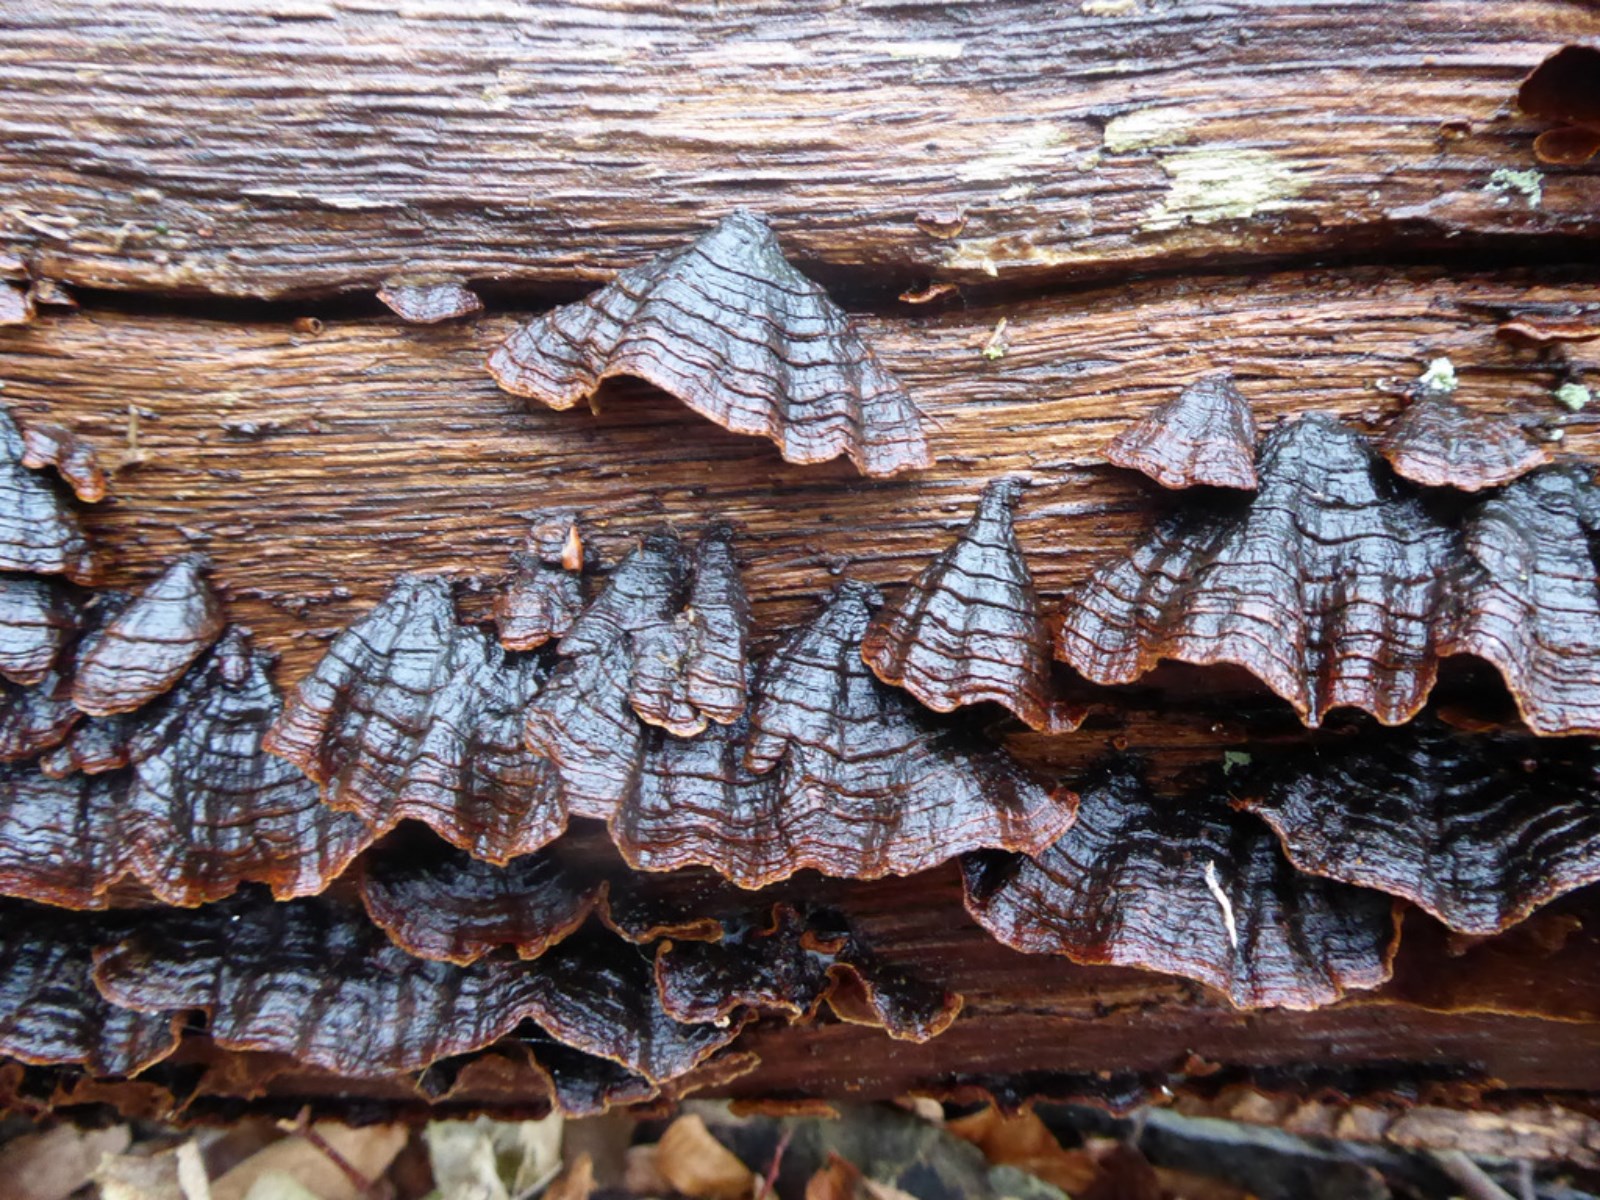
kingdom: Fungi
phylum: Basidiomycota
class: Agaricomycetes
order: Hymenochaetales
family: Hymenochaetaceae
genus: Hymenochaete
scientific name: Hymenochaete rubiginosa
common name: stiv ruslædersvamp
